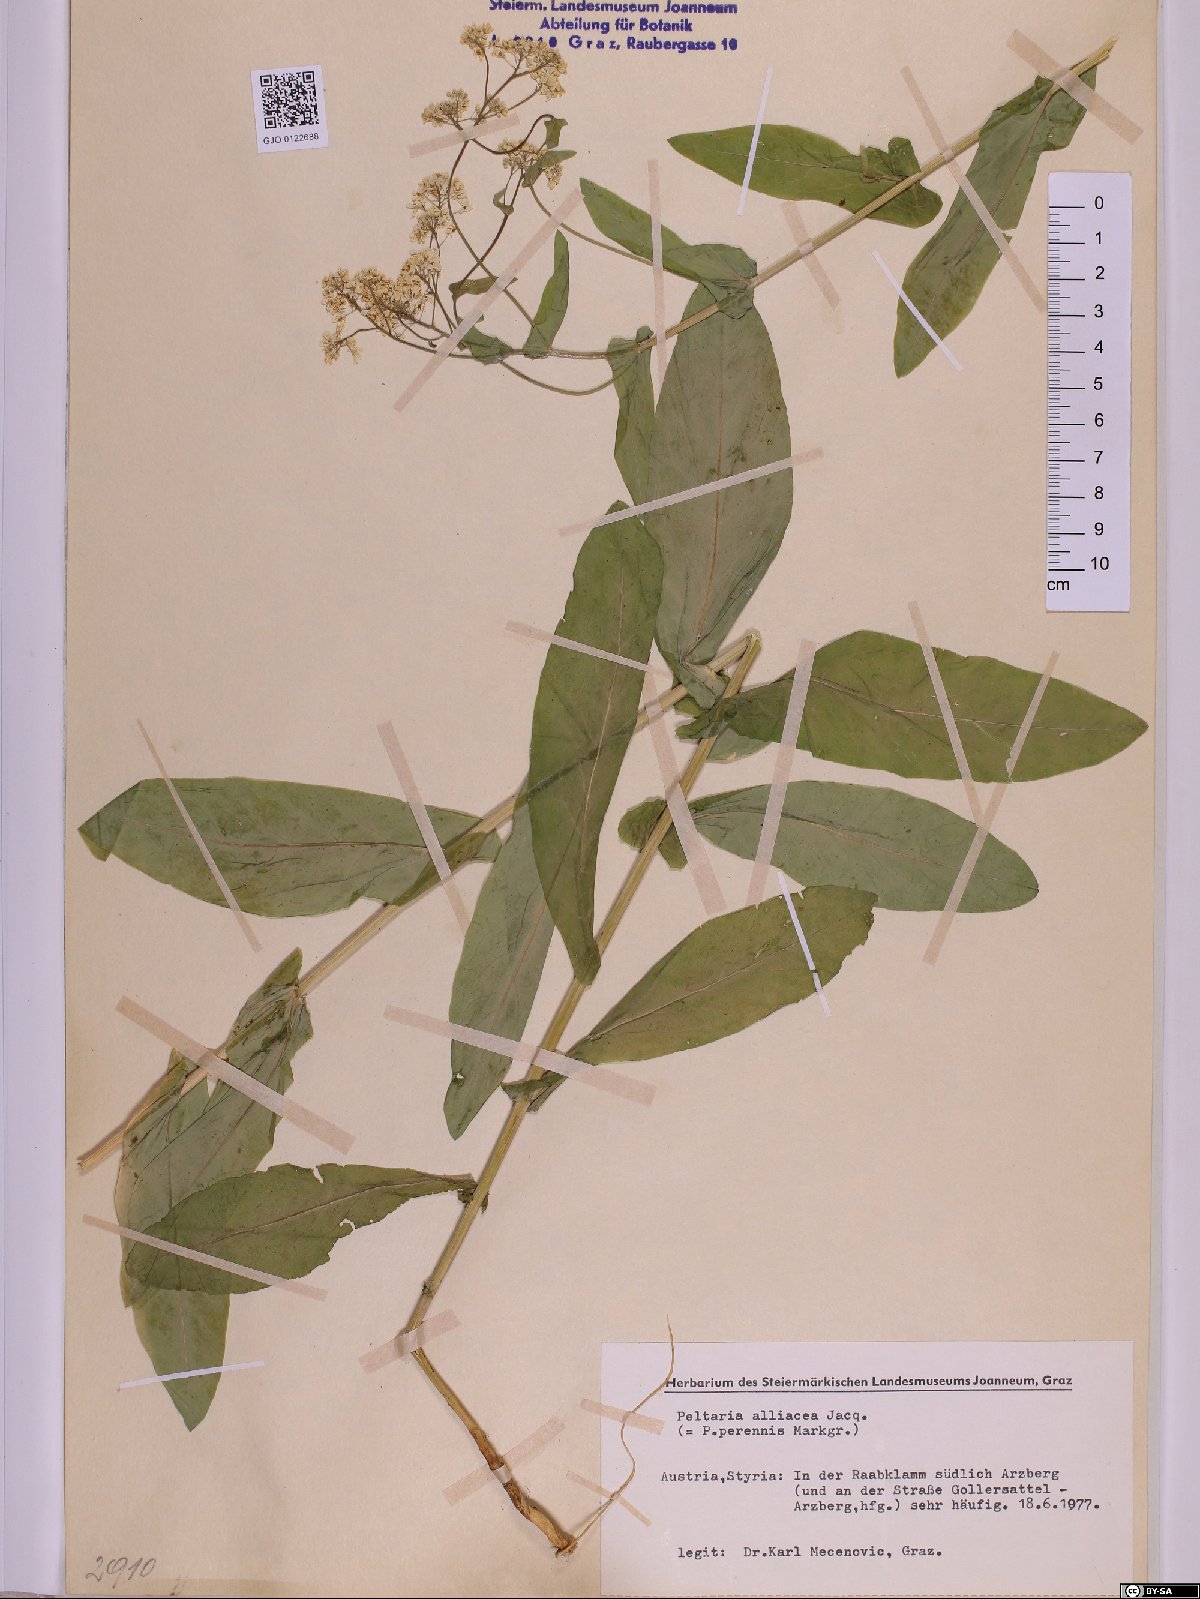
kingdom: Plantae
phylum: Tracheophyta
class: Magnoliopsida
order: Brassicales
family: Brassicaceae
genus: Peltaria
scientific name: Peltaria alliacea
